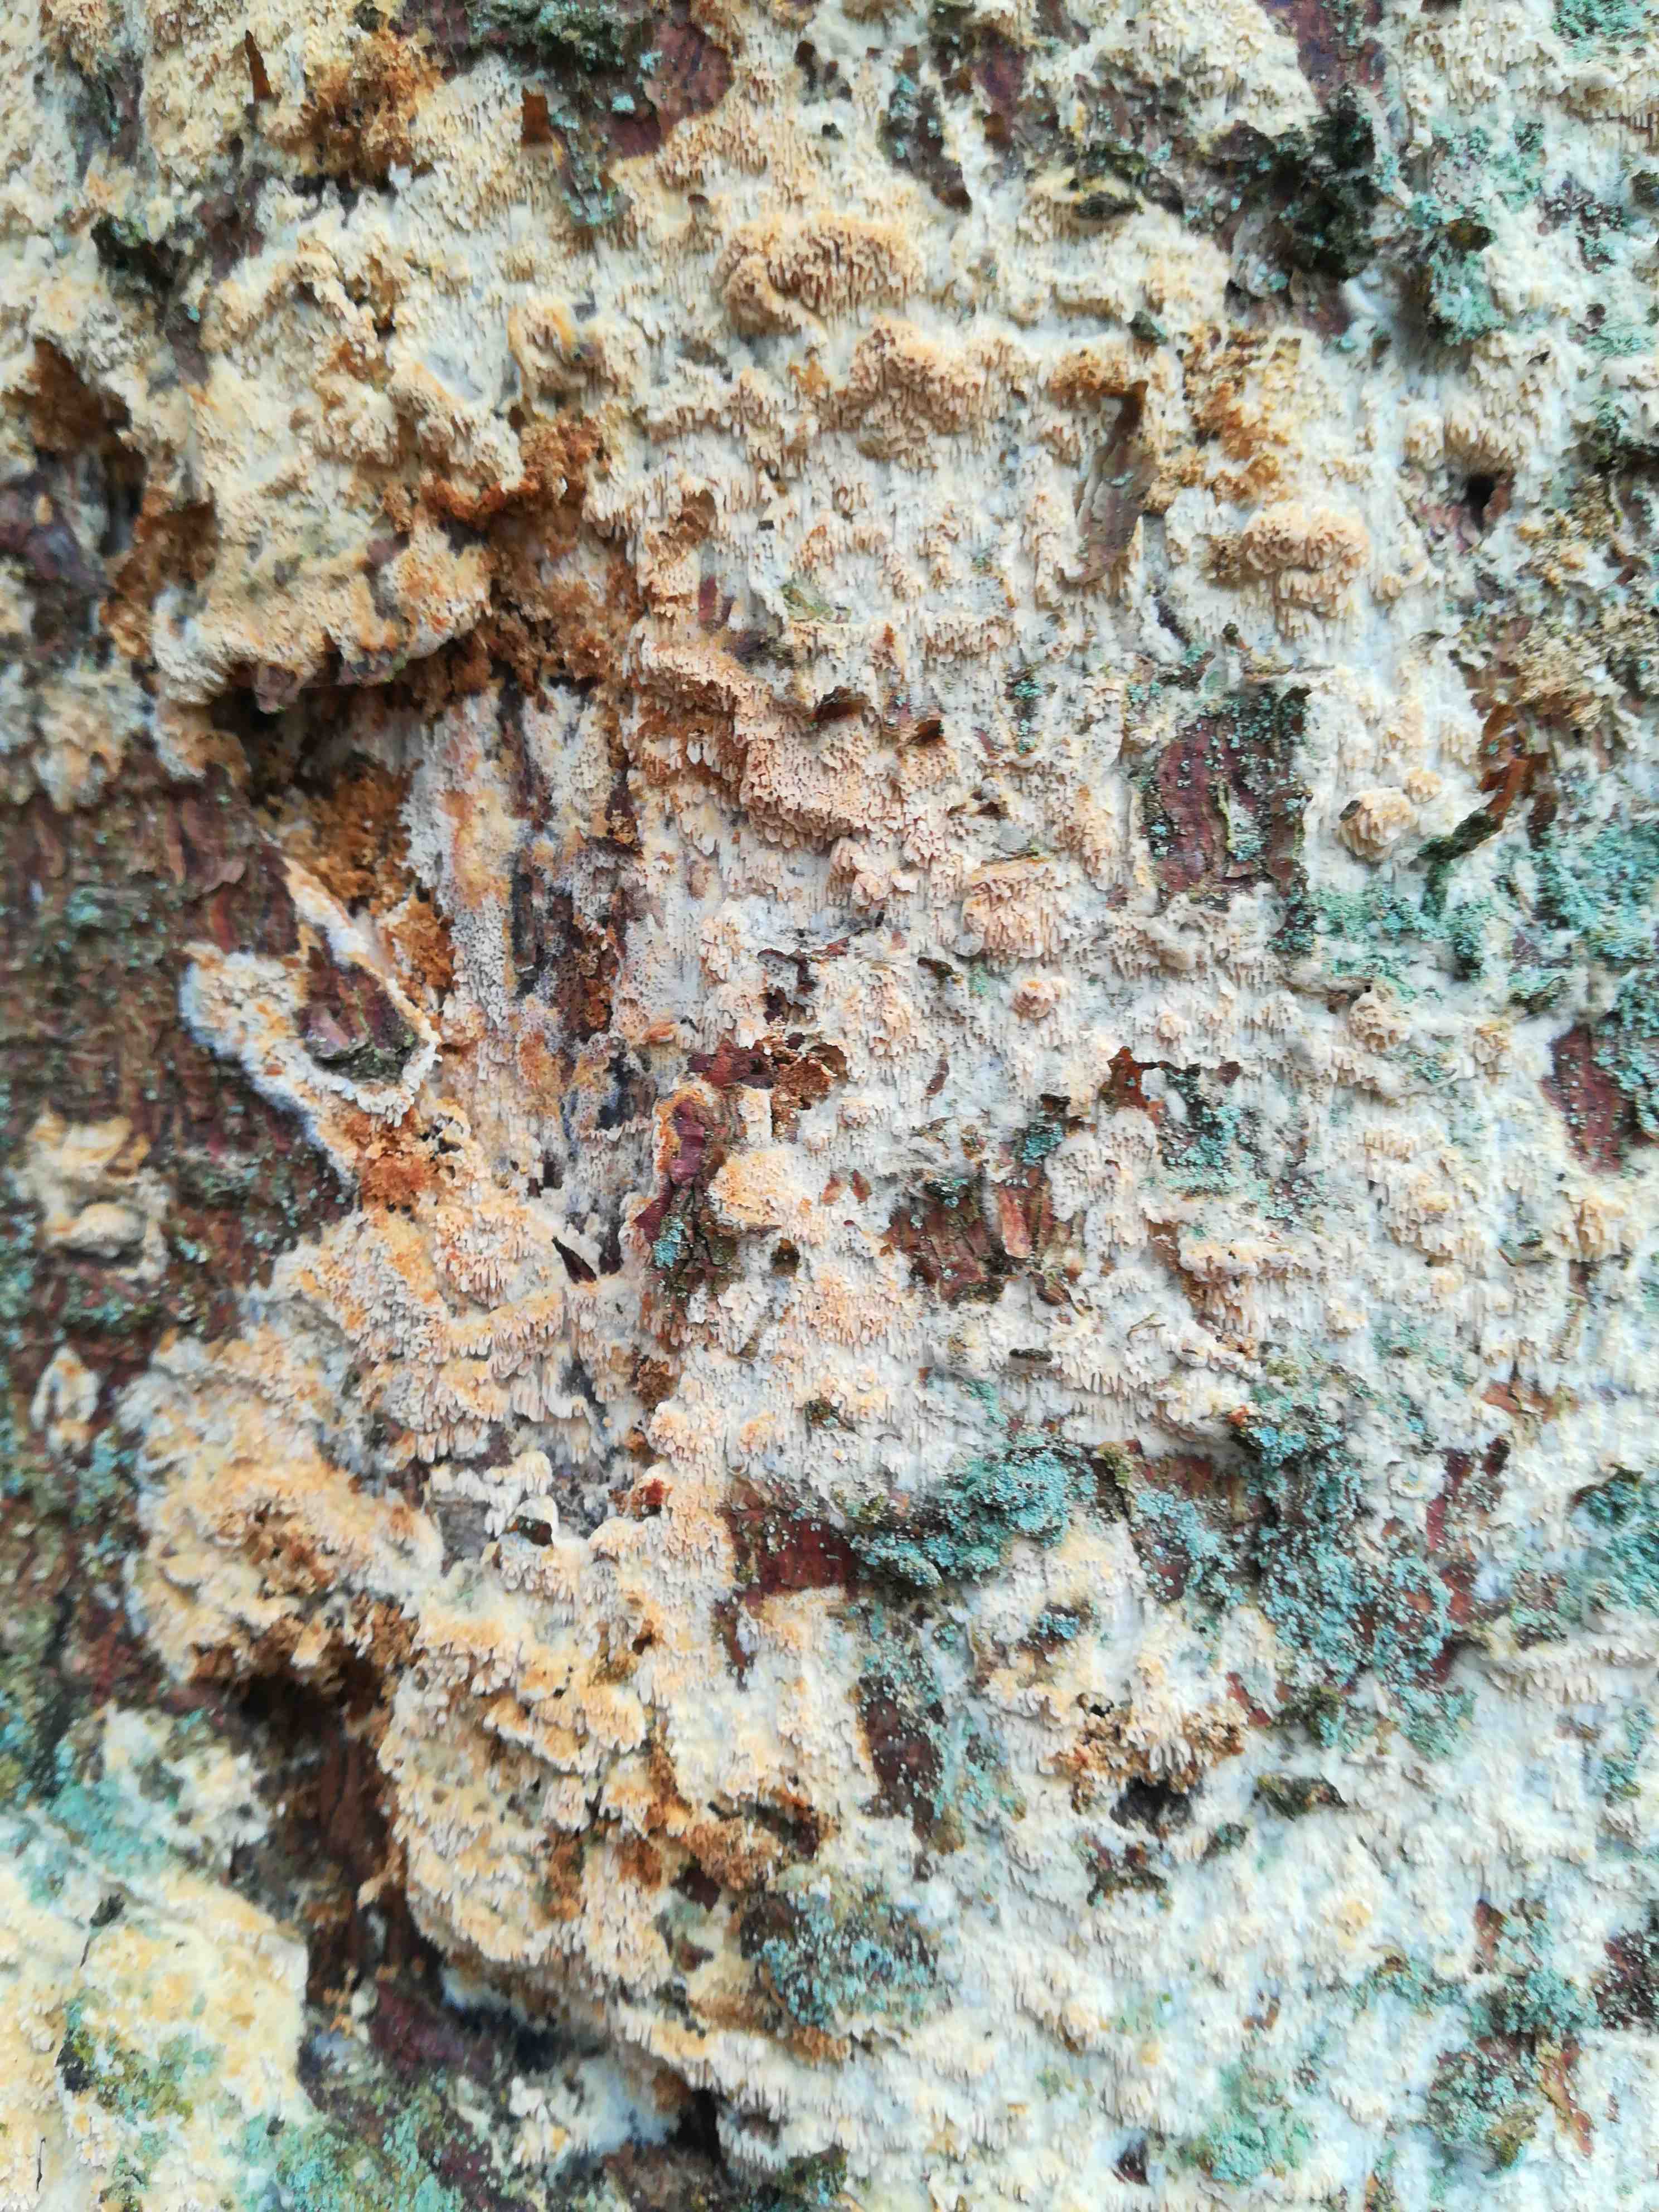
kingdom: Fungi
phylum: Basidiomycota
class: Agaricomycetes
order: Hymenochaetales
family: Schizoporaceae
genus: Xylodon
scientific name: Xylodon
